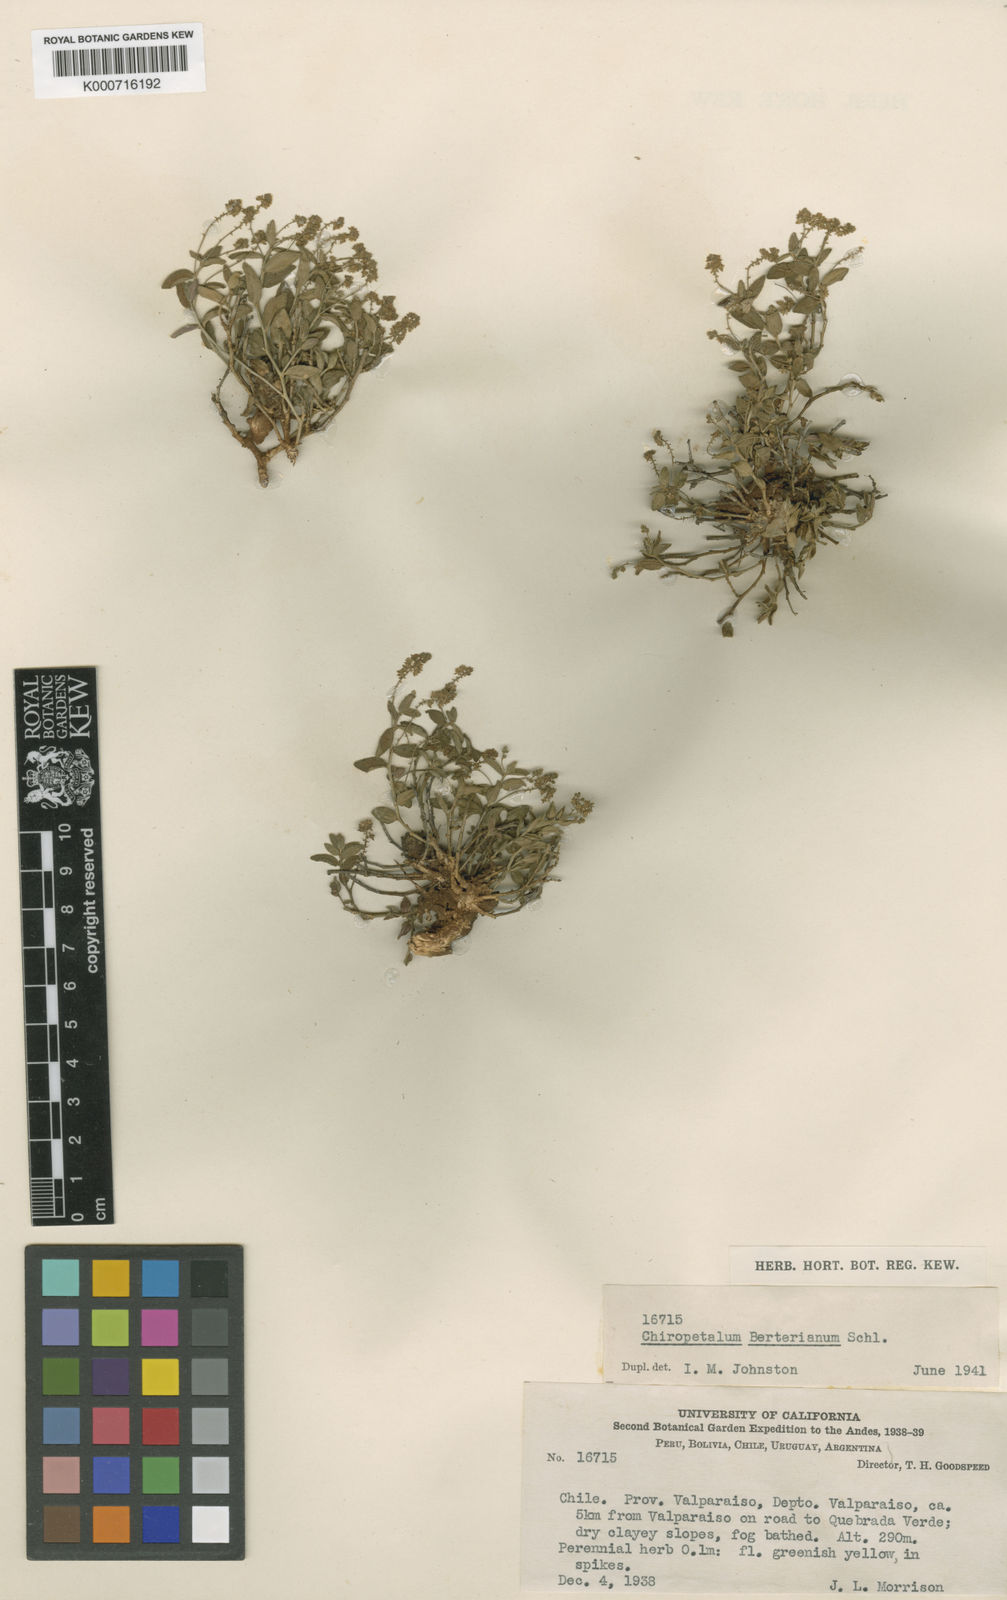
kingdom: Plantae
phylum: Tracheophyta
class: Magnoliopsida
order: Malpighiales
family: Euphorbiaceae
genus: Chiropetalum
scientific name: Chiropetalum berteroanum
